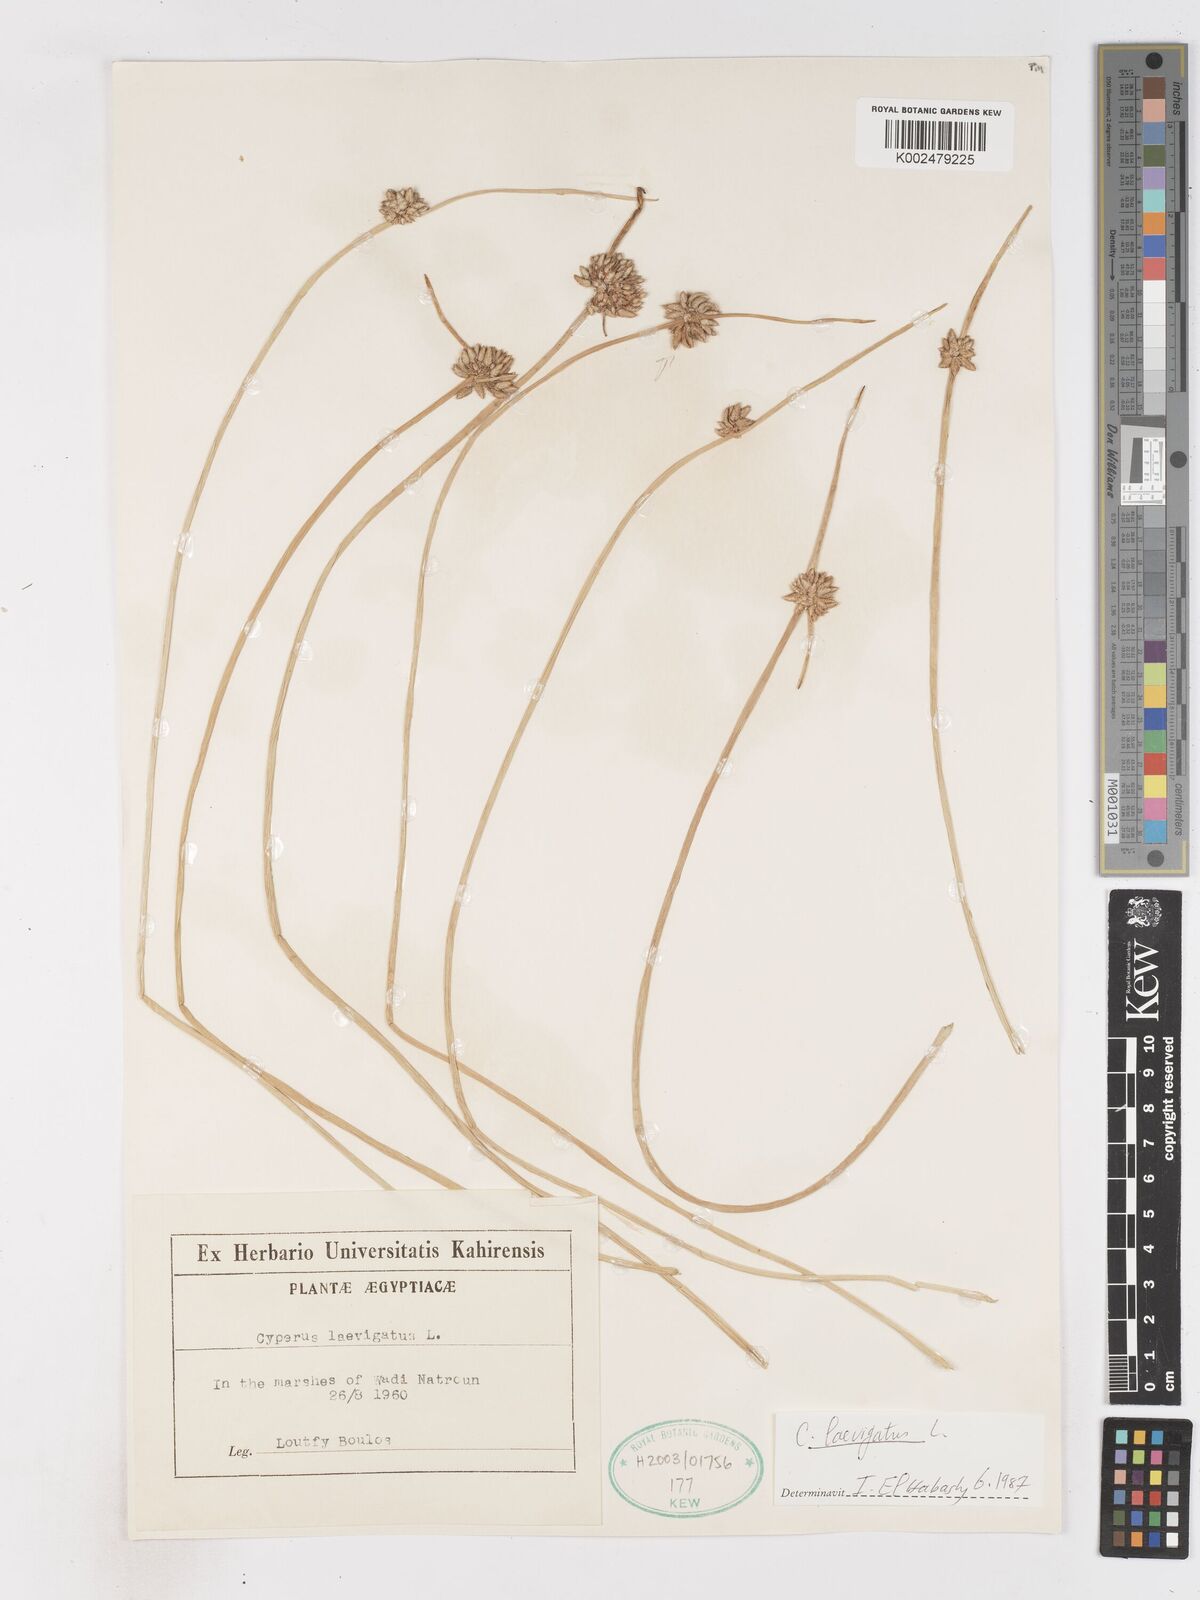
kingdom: Plantae
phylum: Tracheophyta
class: Liliopsida
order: Poales
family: Cyperaceae
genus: Cyperus
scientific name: Cyperus laevigatus
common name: Smooth flat sedge
